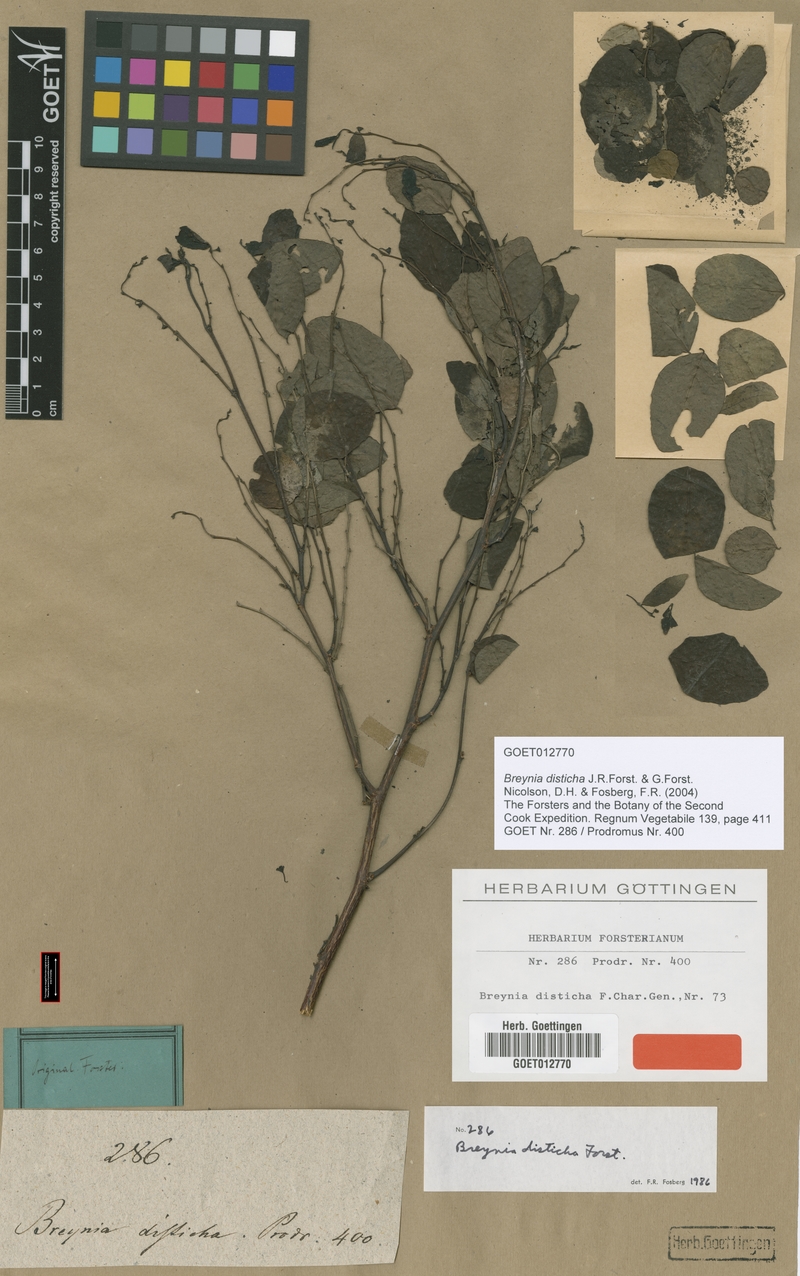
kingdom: Plantae
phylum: Tracheophyta
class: Magnoliopsida
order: Malpighiales
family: Phyllanthaceae
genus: Breynia
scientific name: Breynia disticha
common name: Snowbush
